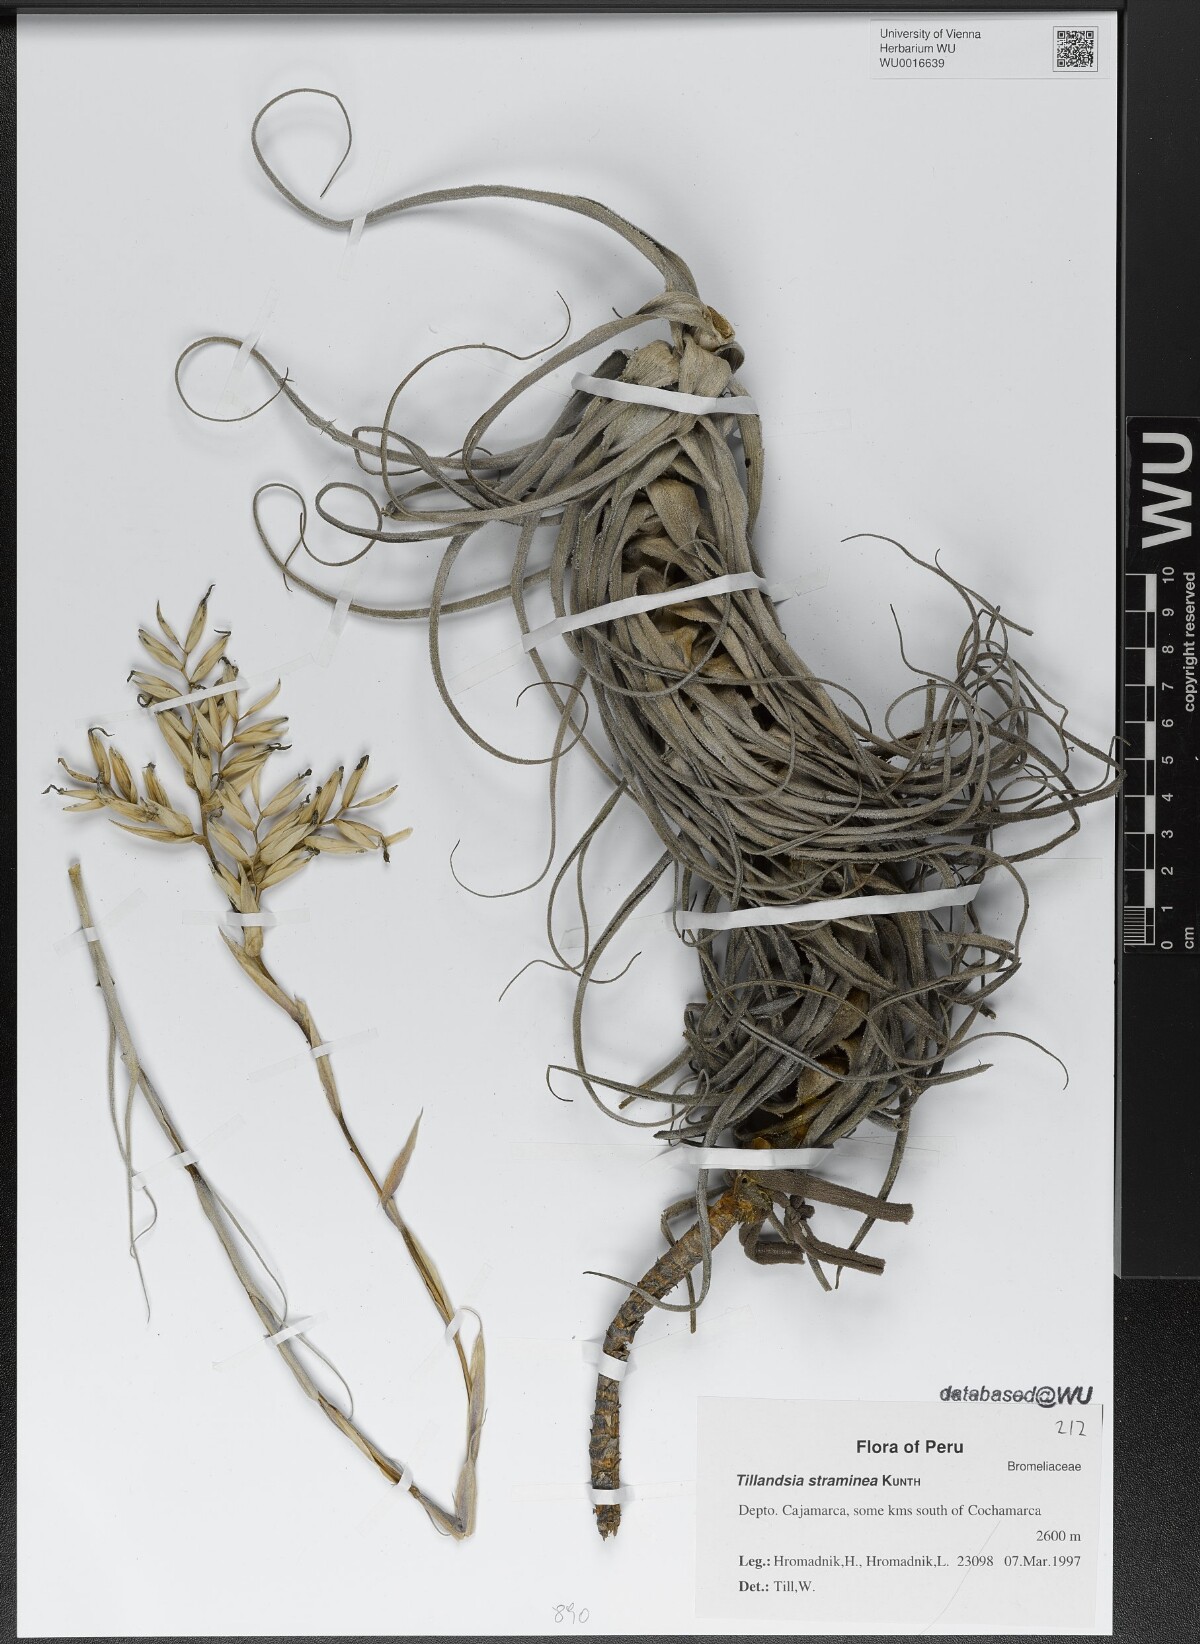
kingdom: Plantae
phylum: Tracheophyta
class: Liliopsida
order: Poales
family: Bromeliaceae
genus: Tillandsia
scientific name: Tillandsia straminea
